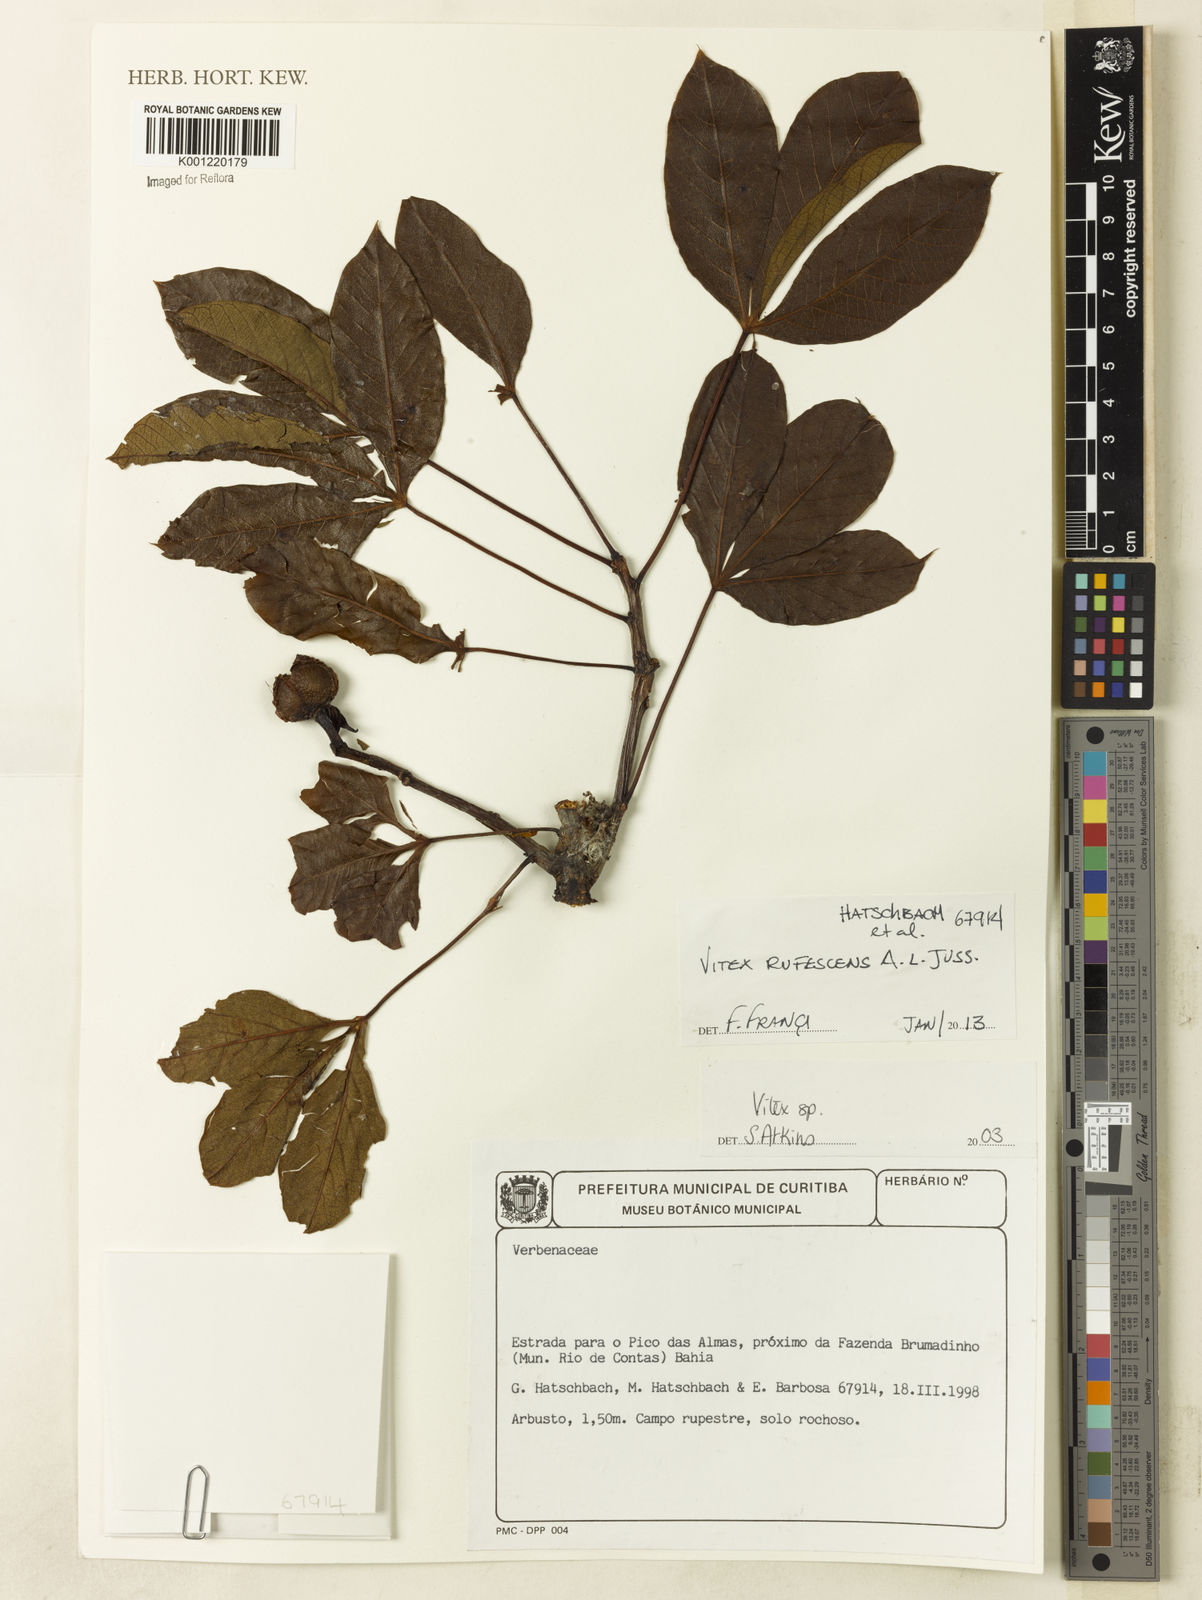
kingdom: Plantae
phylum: Tracheophyta
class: Magnoliopsida
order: Lamiales
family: Lamiaceae
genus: Vitex
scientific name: Vitex rufescens
